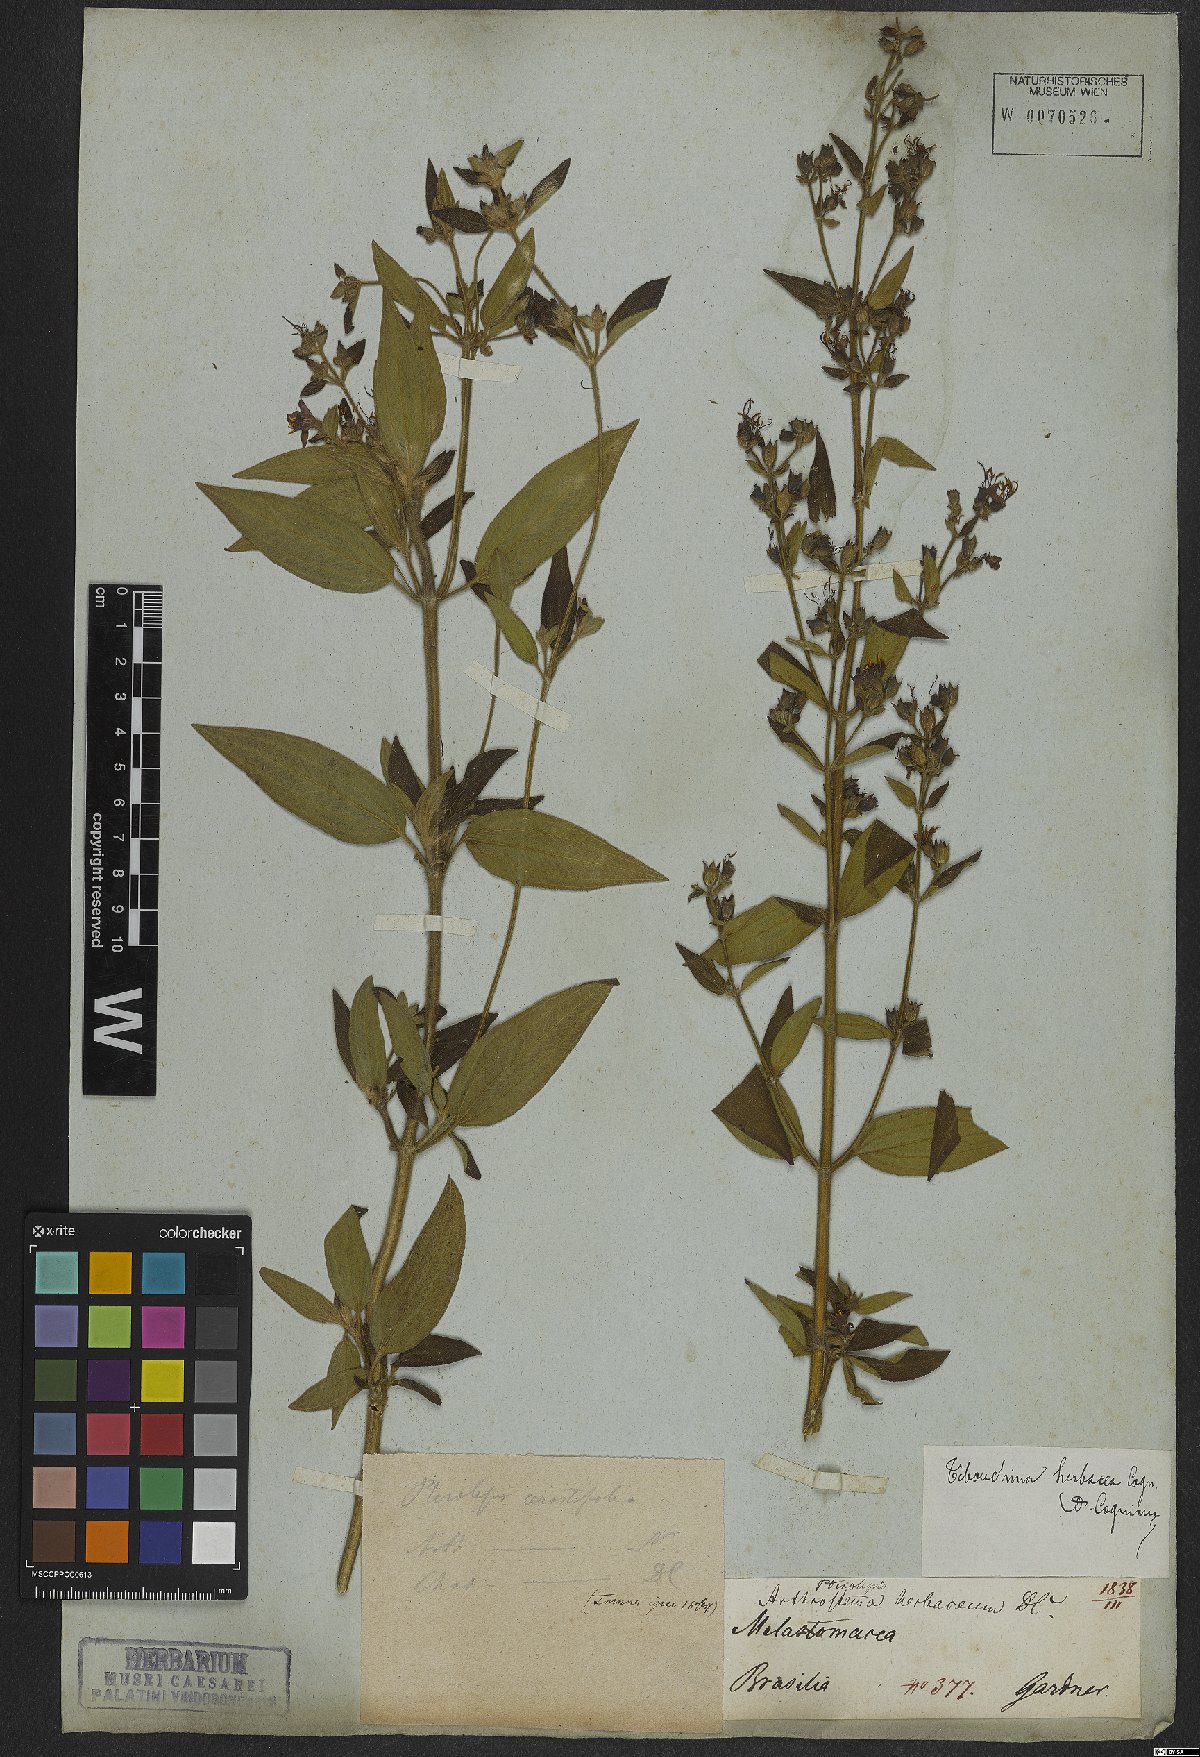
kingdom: Plantae
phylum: Tracheophyta
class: Magnoliopsida
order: Myrtales
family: Melastomataceae
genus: Chaetogastra
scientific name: Chaetogastra herbacea
